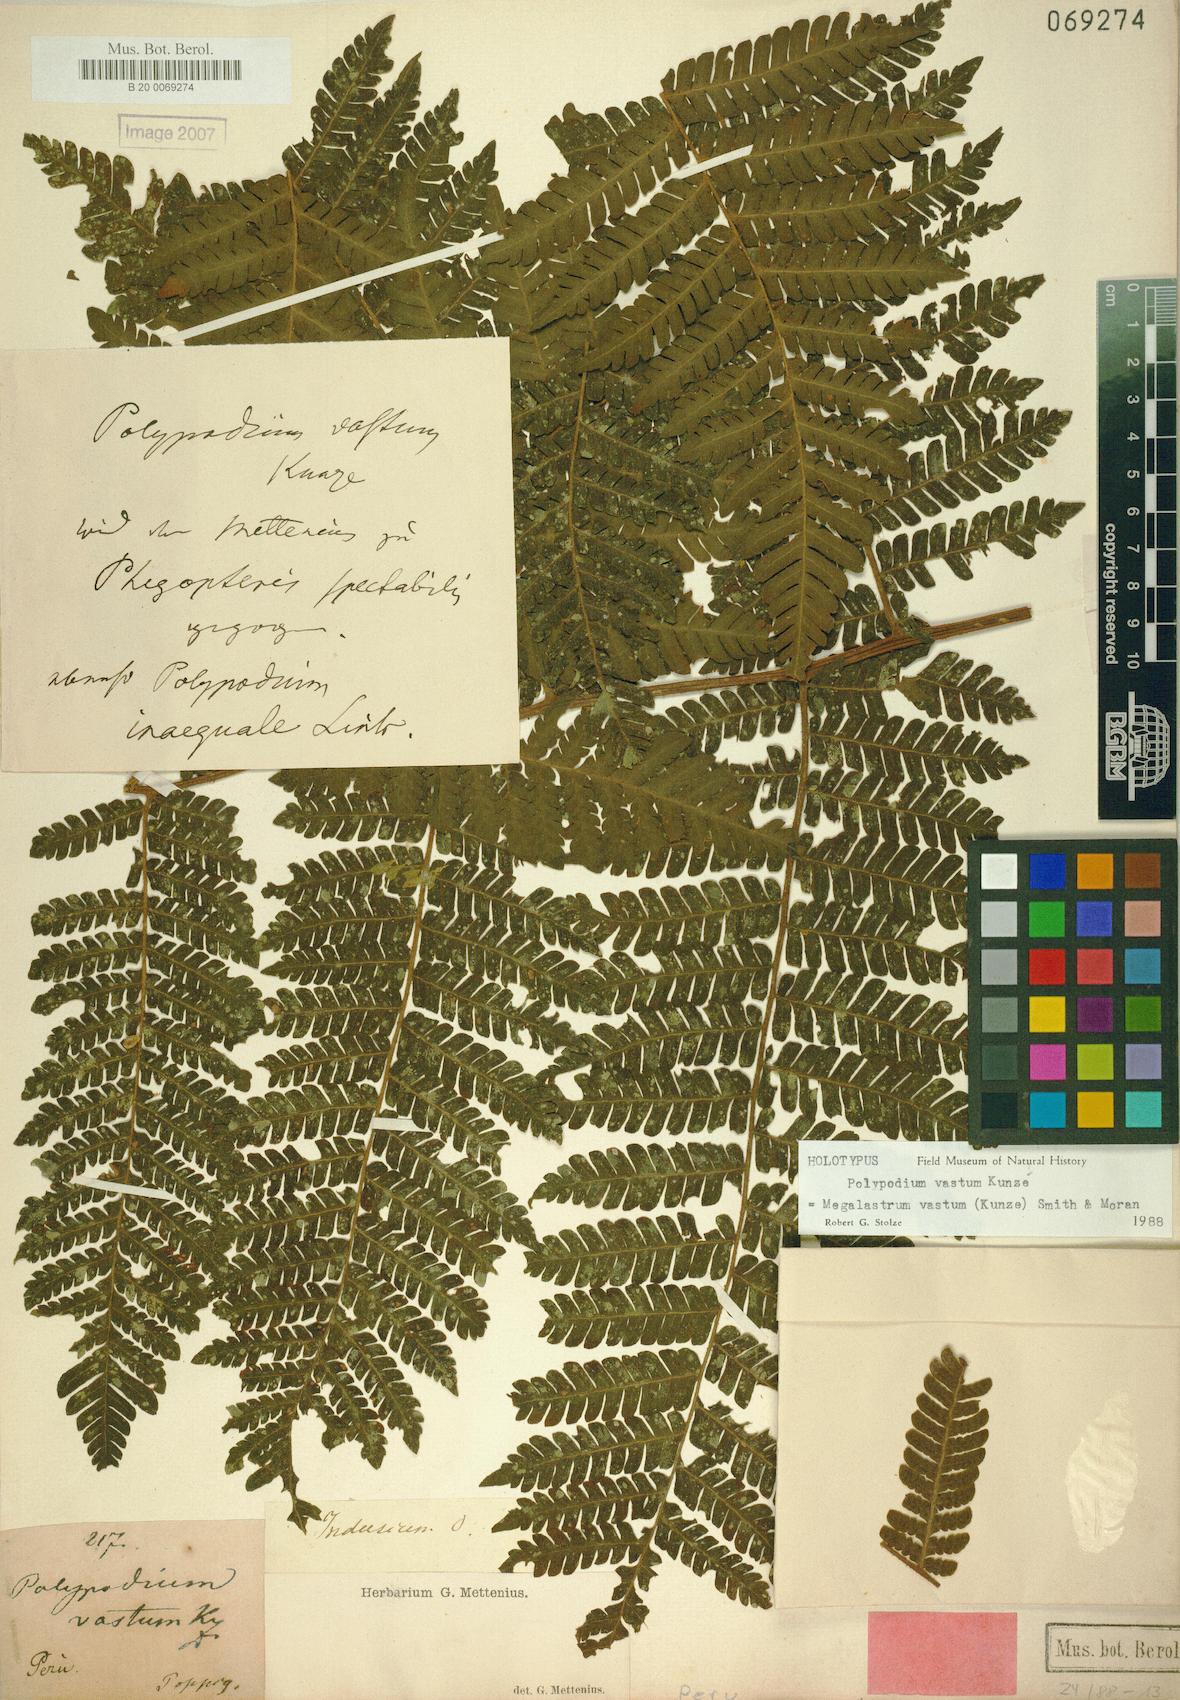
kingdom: Plantae
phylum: Tracheophyta
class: Polypodiopsida
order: Polypodiales
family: Dryopteridaceae
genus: Megalastrum
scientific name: Megalastrum vastum
